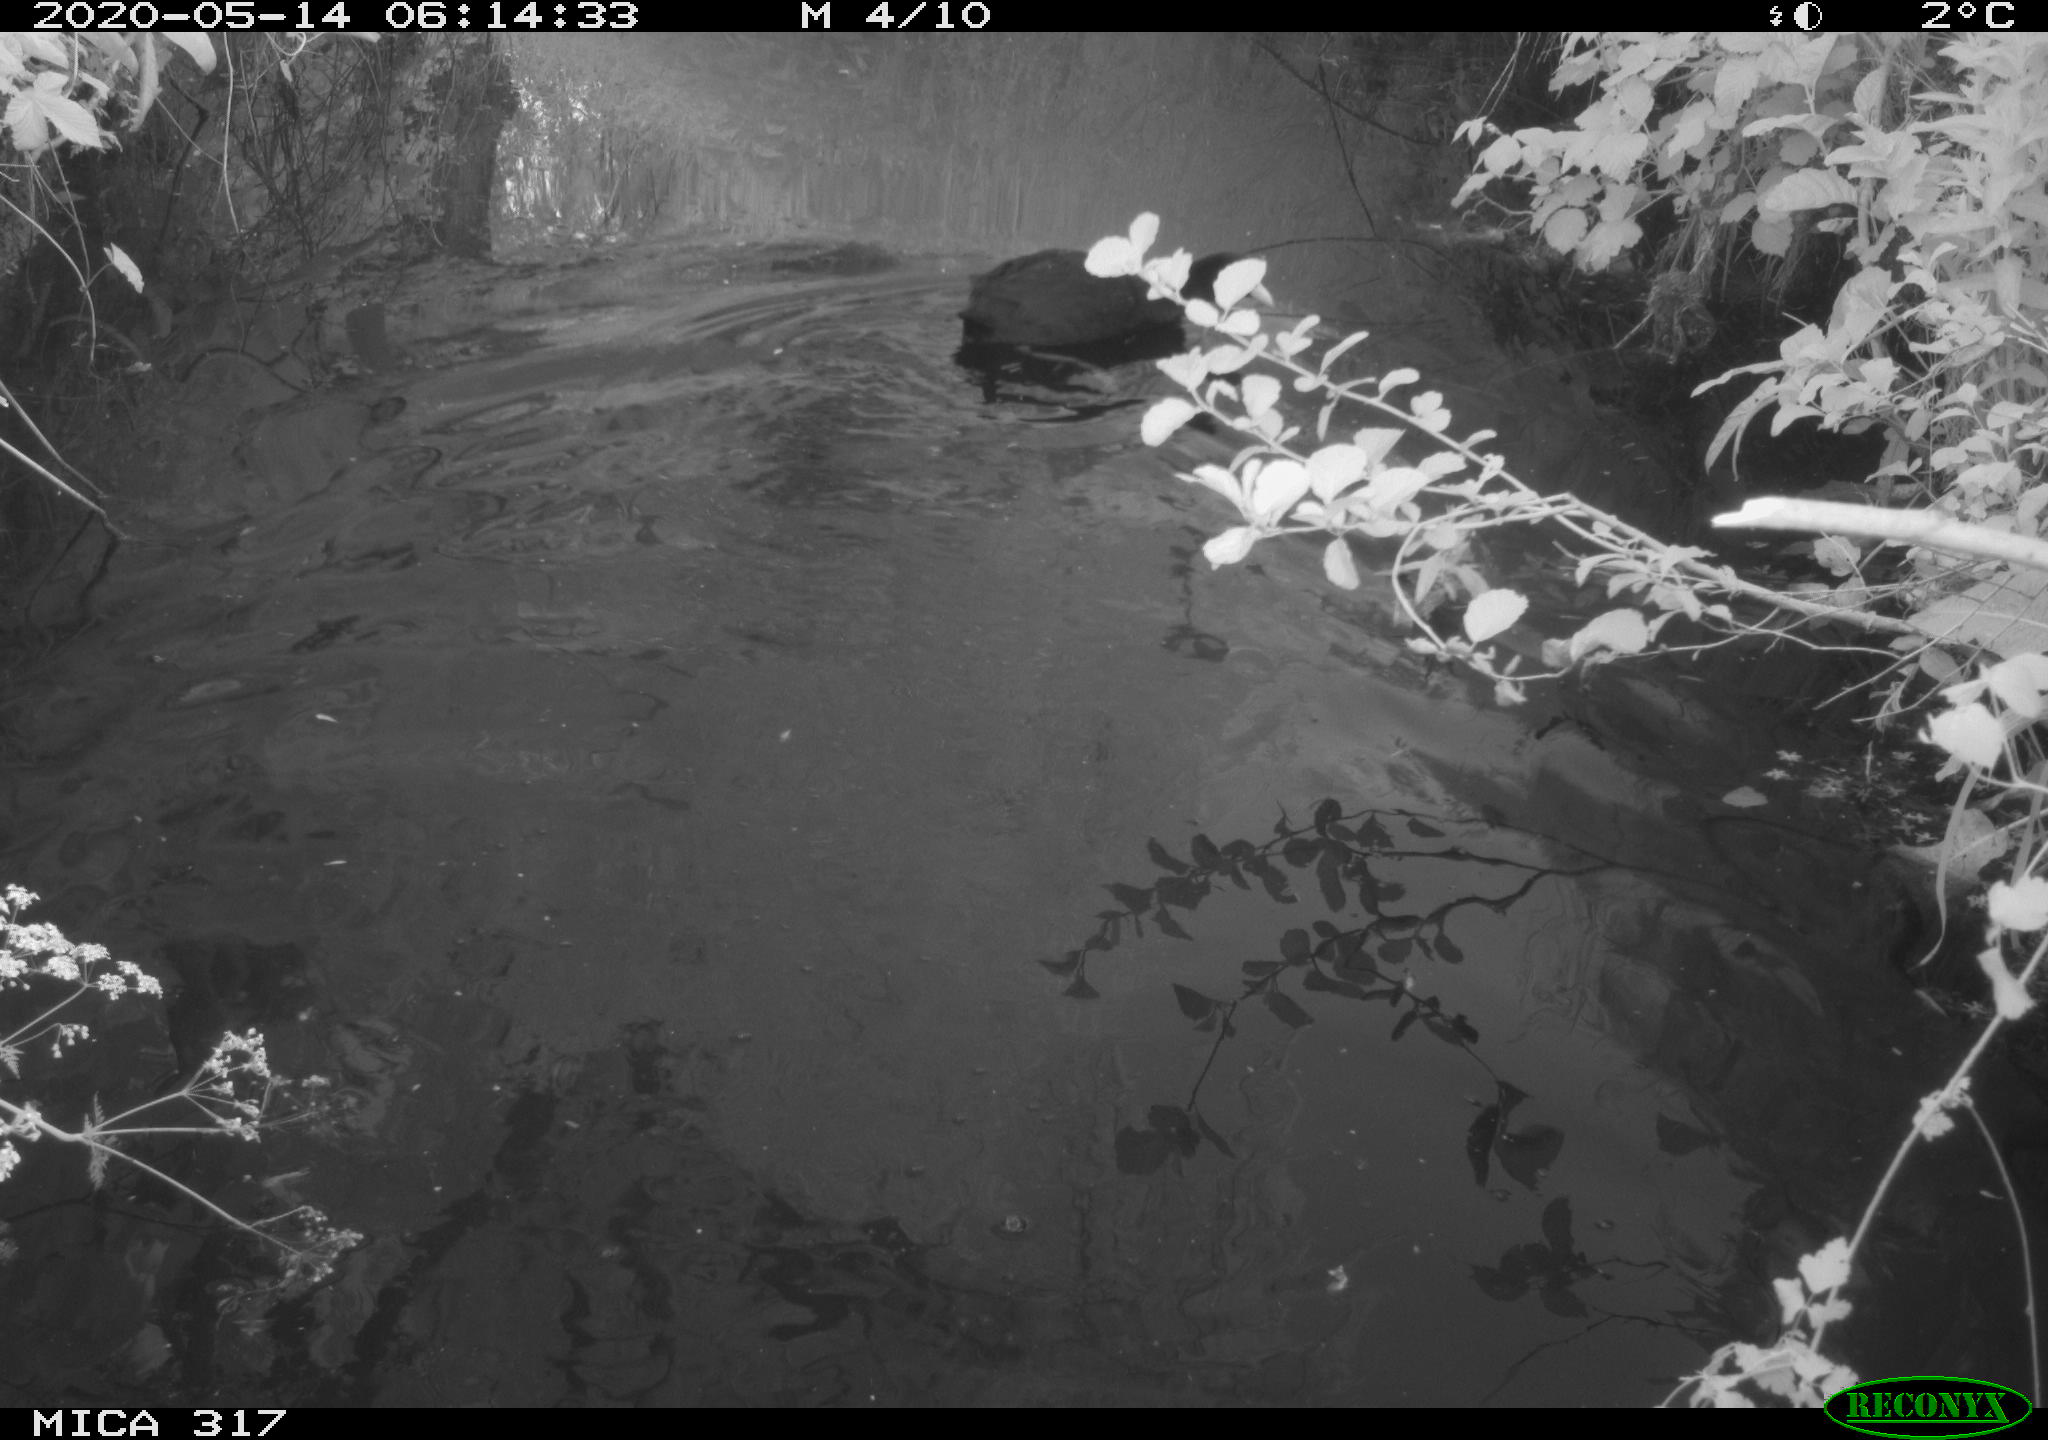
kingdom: Animalia
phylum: Chordata
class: Aves
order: Gruiformes
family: Rallidae
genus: Fulica
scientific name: Fulica atra
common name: Eurasian coot
